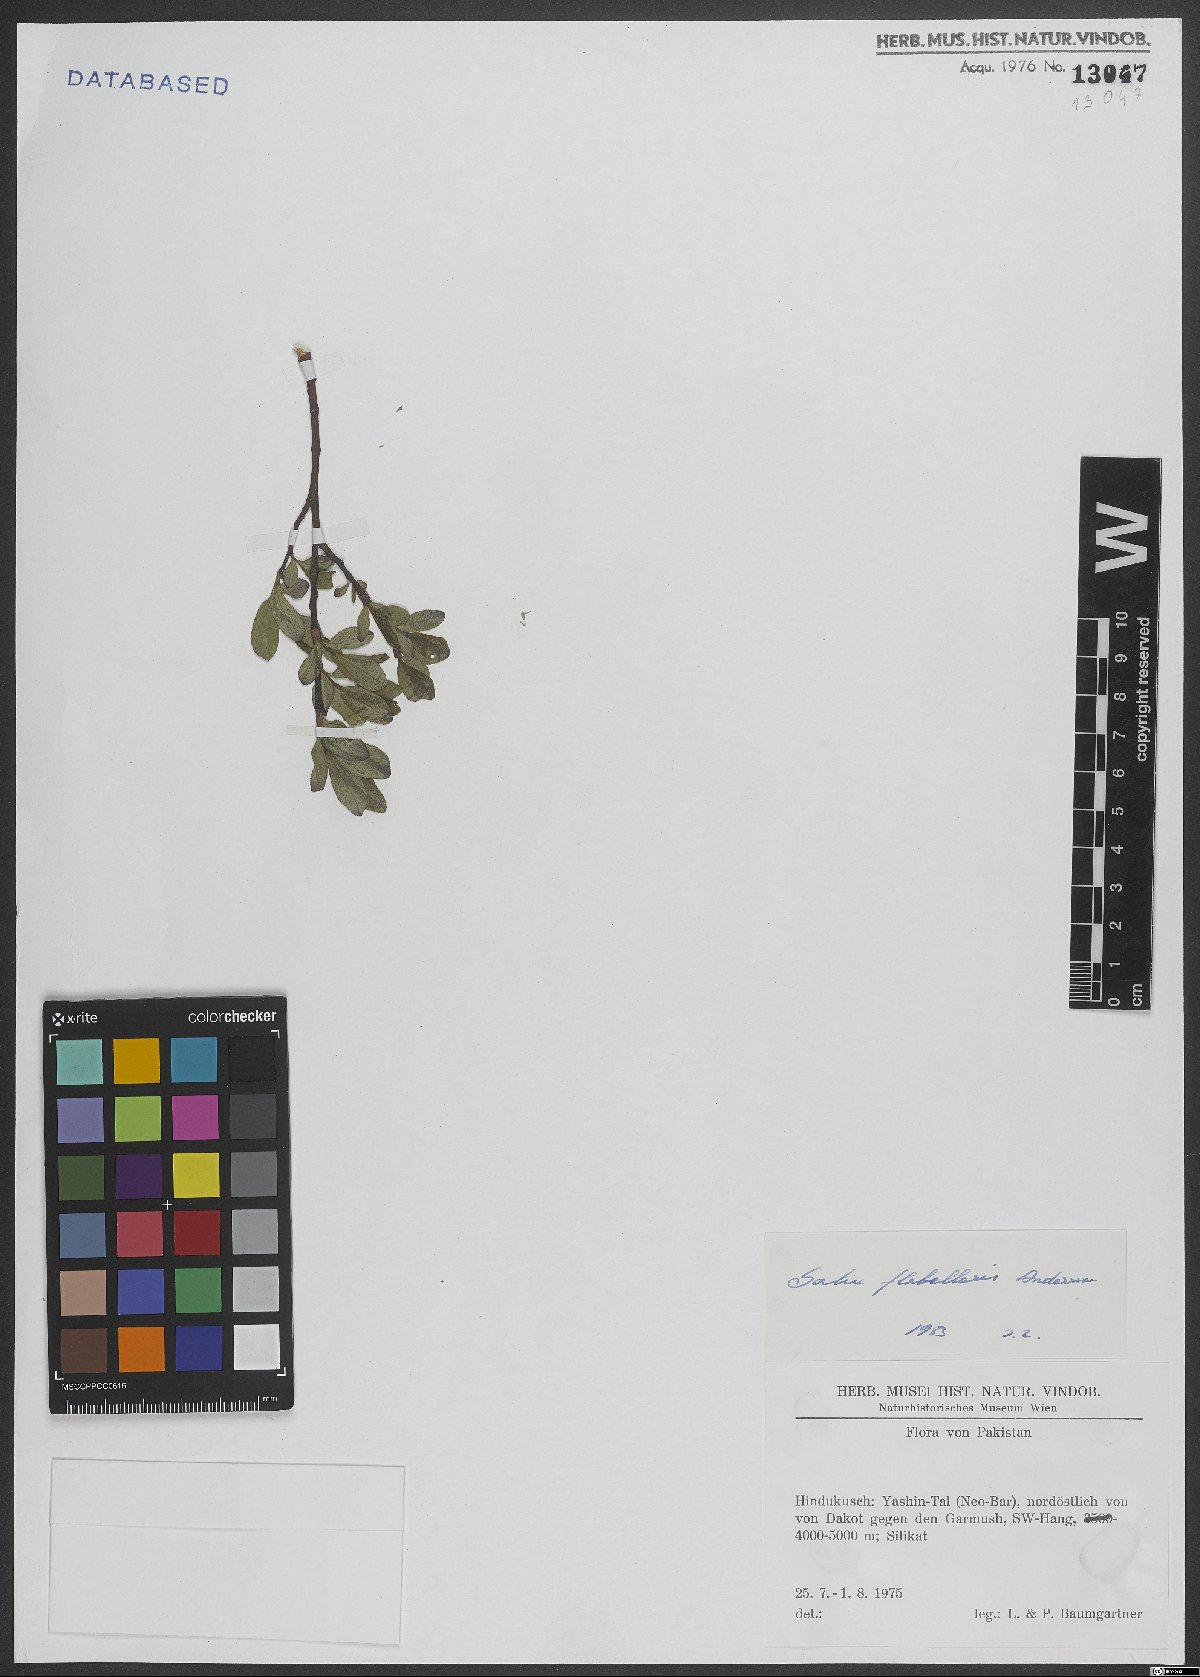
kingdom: Plantae
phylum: Tracheophyta
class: Magnoliopsida
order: Malpighiales
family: Salicaceae
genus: Salix
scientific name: Salix flabellaris
